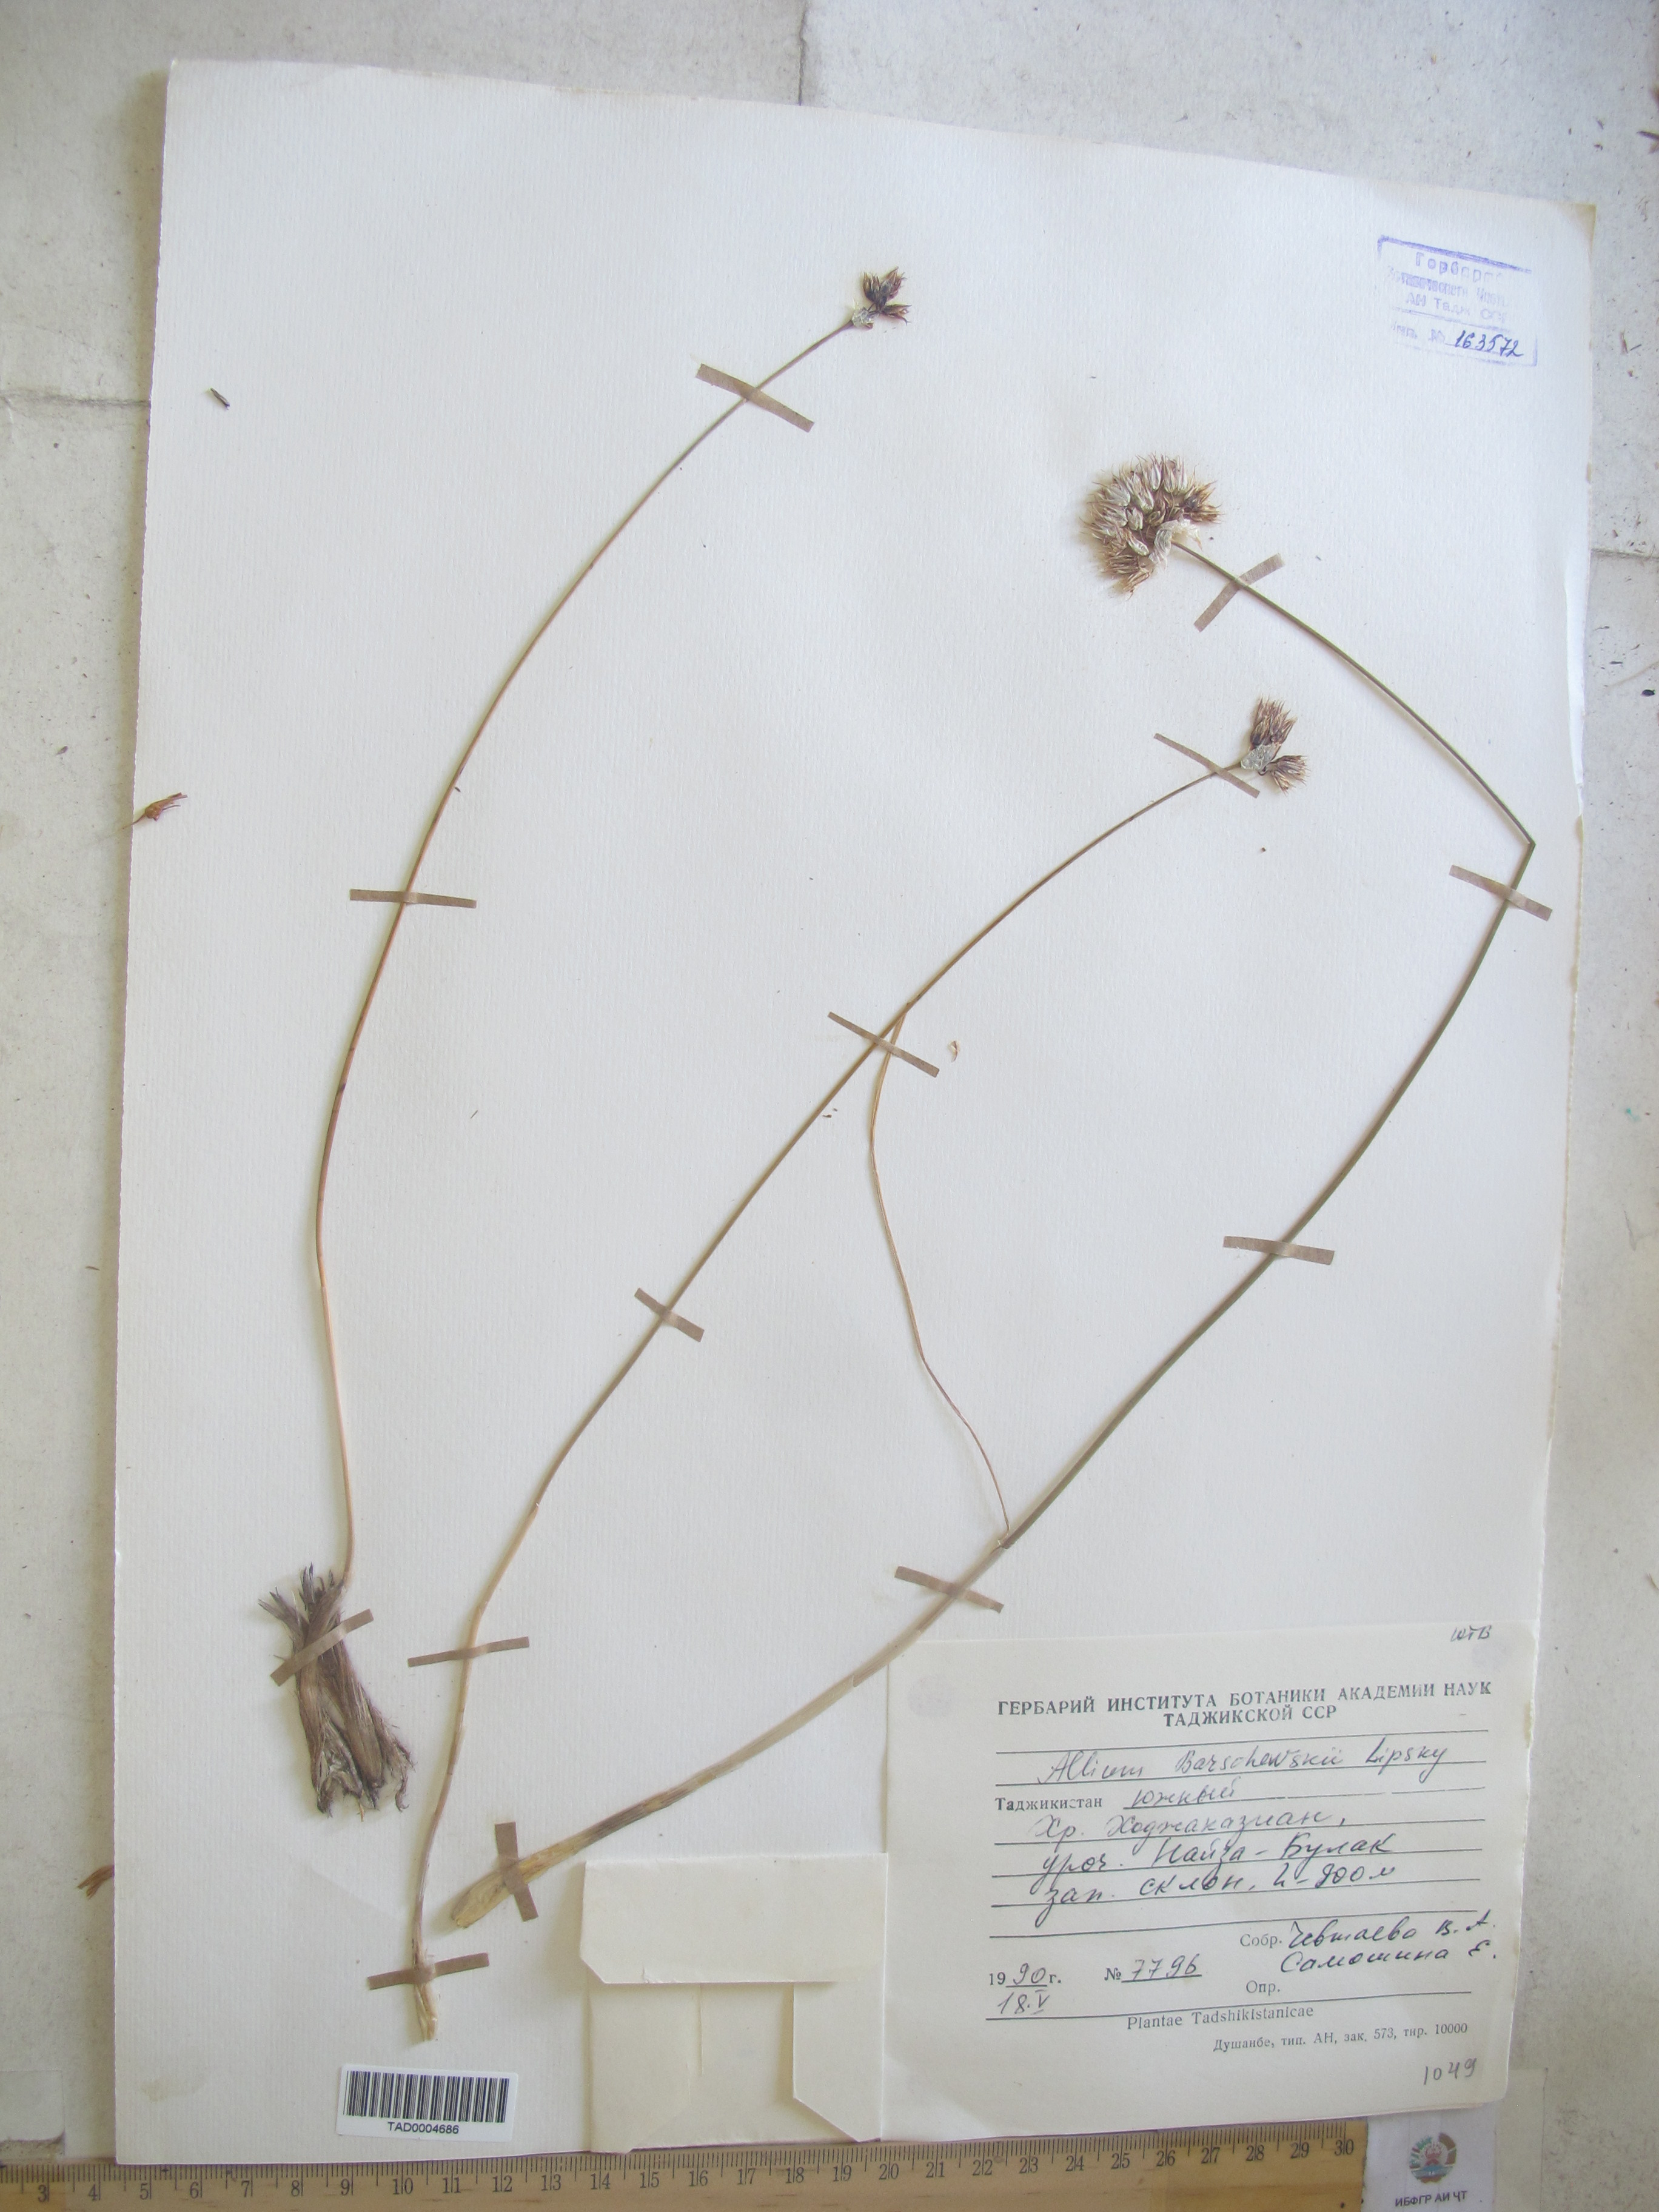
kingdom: Plantae
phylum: Tracheophyta
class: Liliopsida
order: Asparagales
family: Amaryllidaceae
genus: Allium
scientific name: Allium barsczewskii
